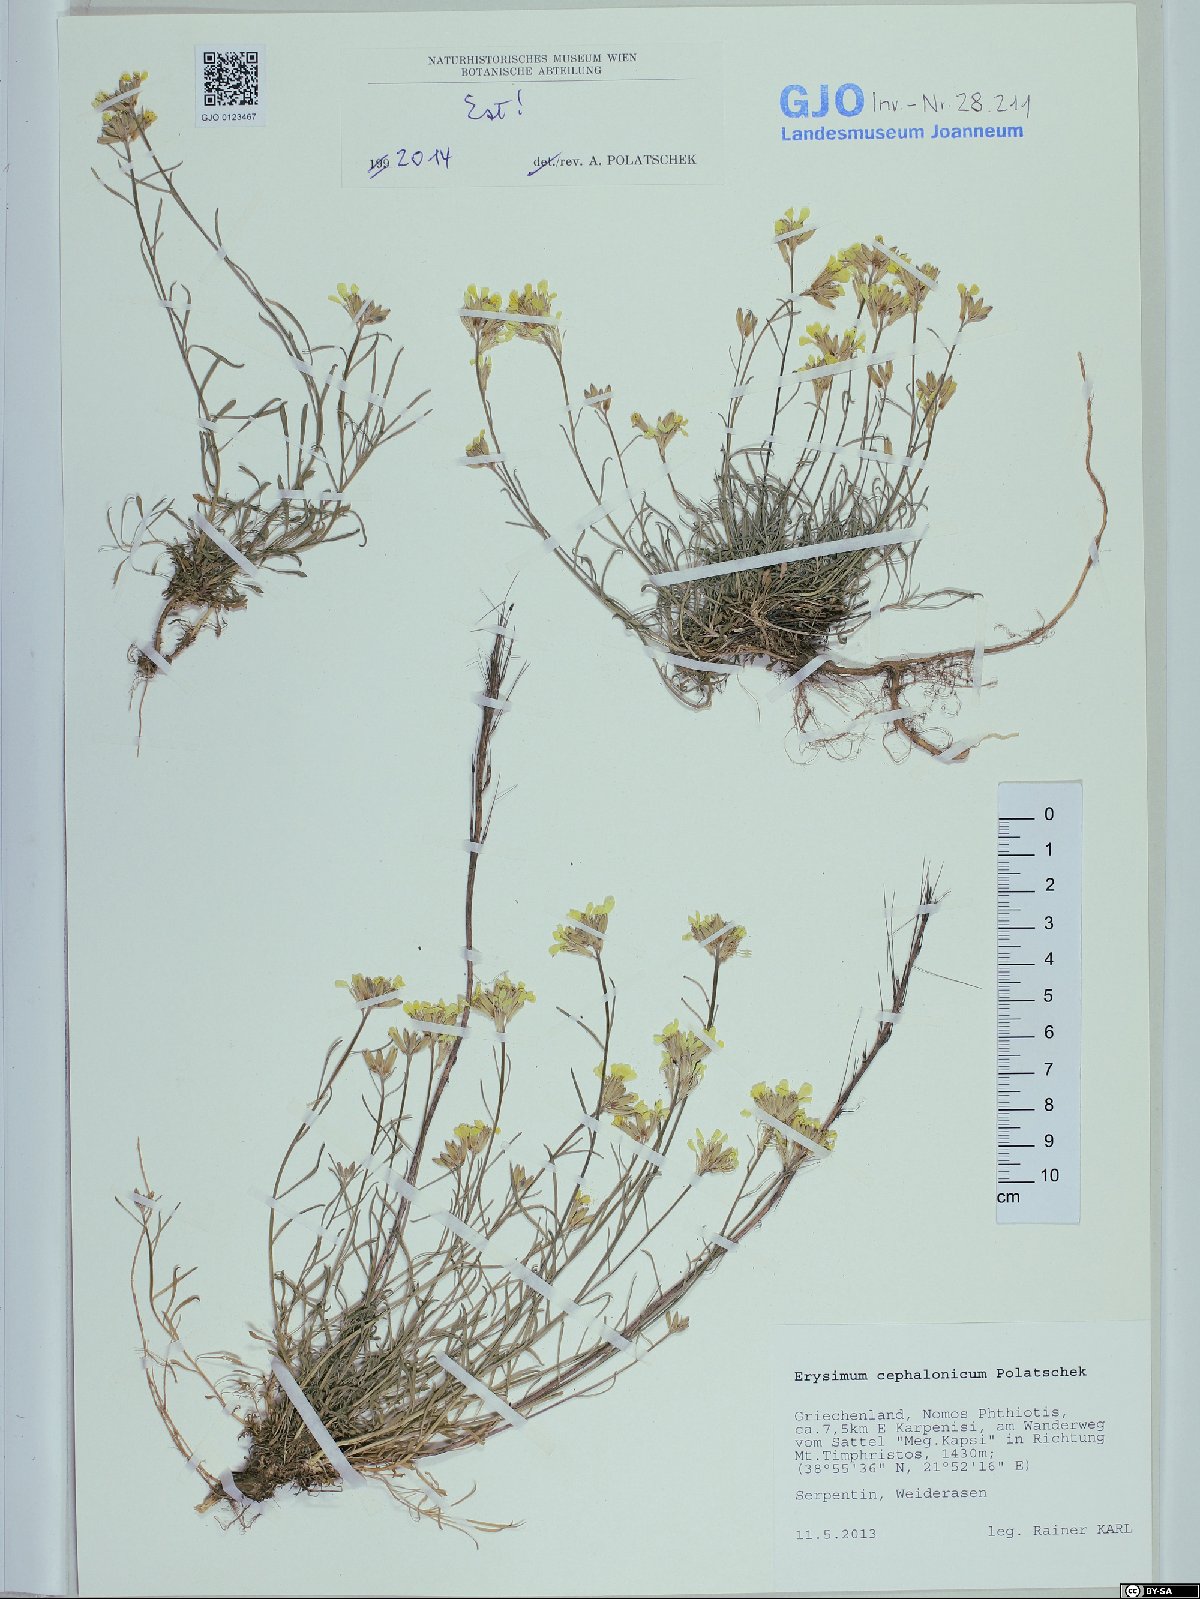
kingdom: Plantae
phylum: Tracheophyta
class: Magnoliopsida
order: Brassicales
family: Brassicaceae
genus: Erysimum
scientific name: Erysimum pusillum
